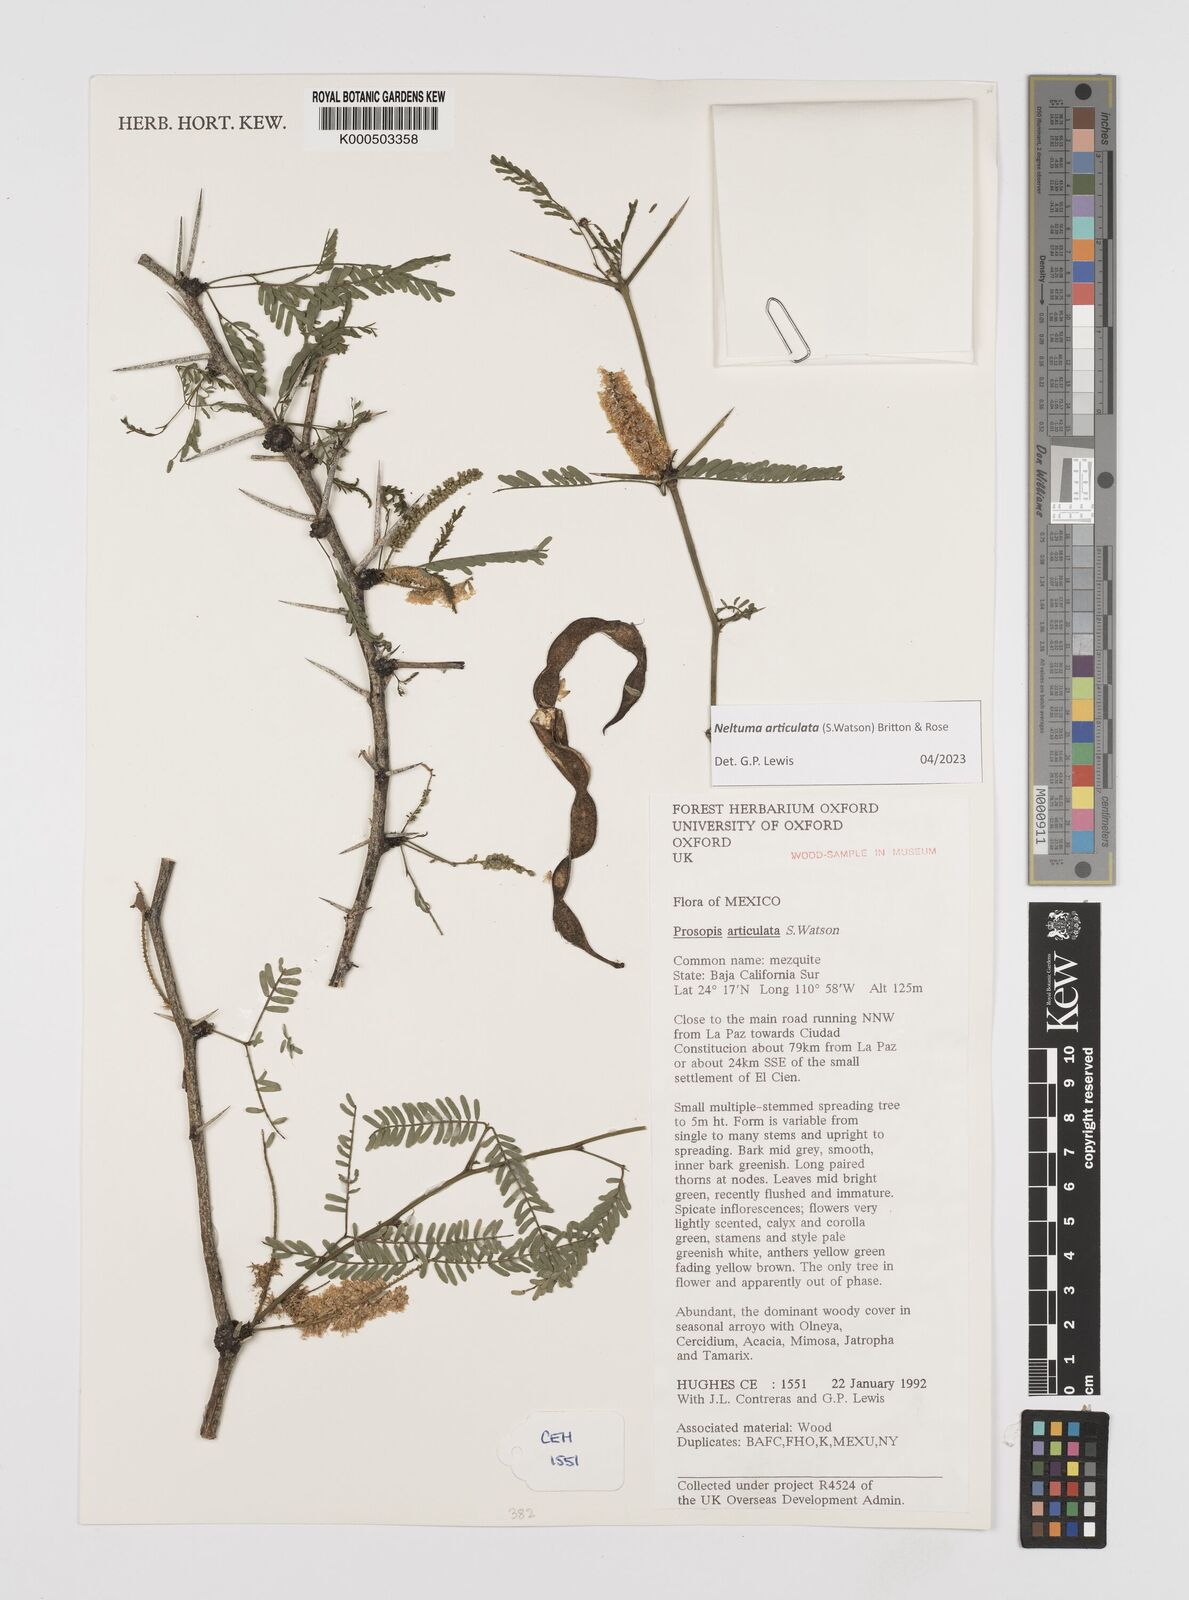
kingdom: Plantae
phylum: Tracheophyta
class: Magnoliopsida
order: Fabales
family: Fabaceae
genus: Prosopis
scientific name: Prosopis articulata
